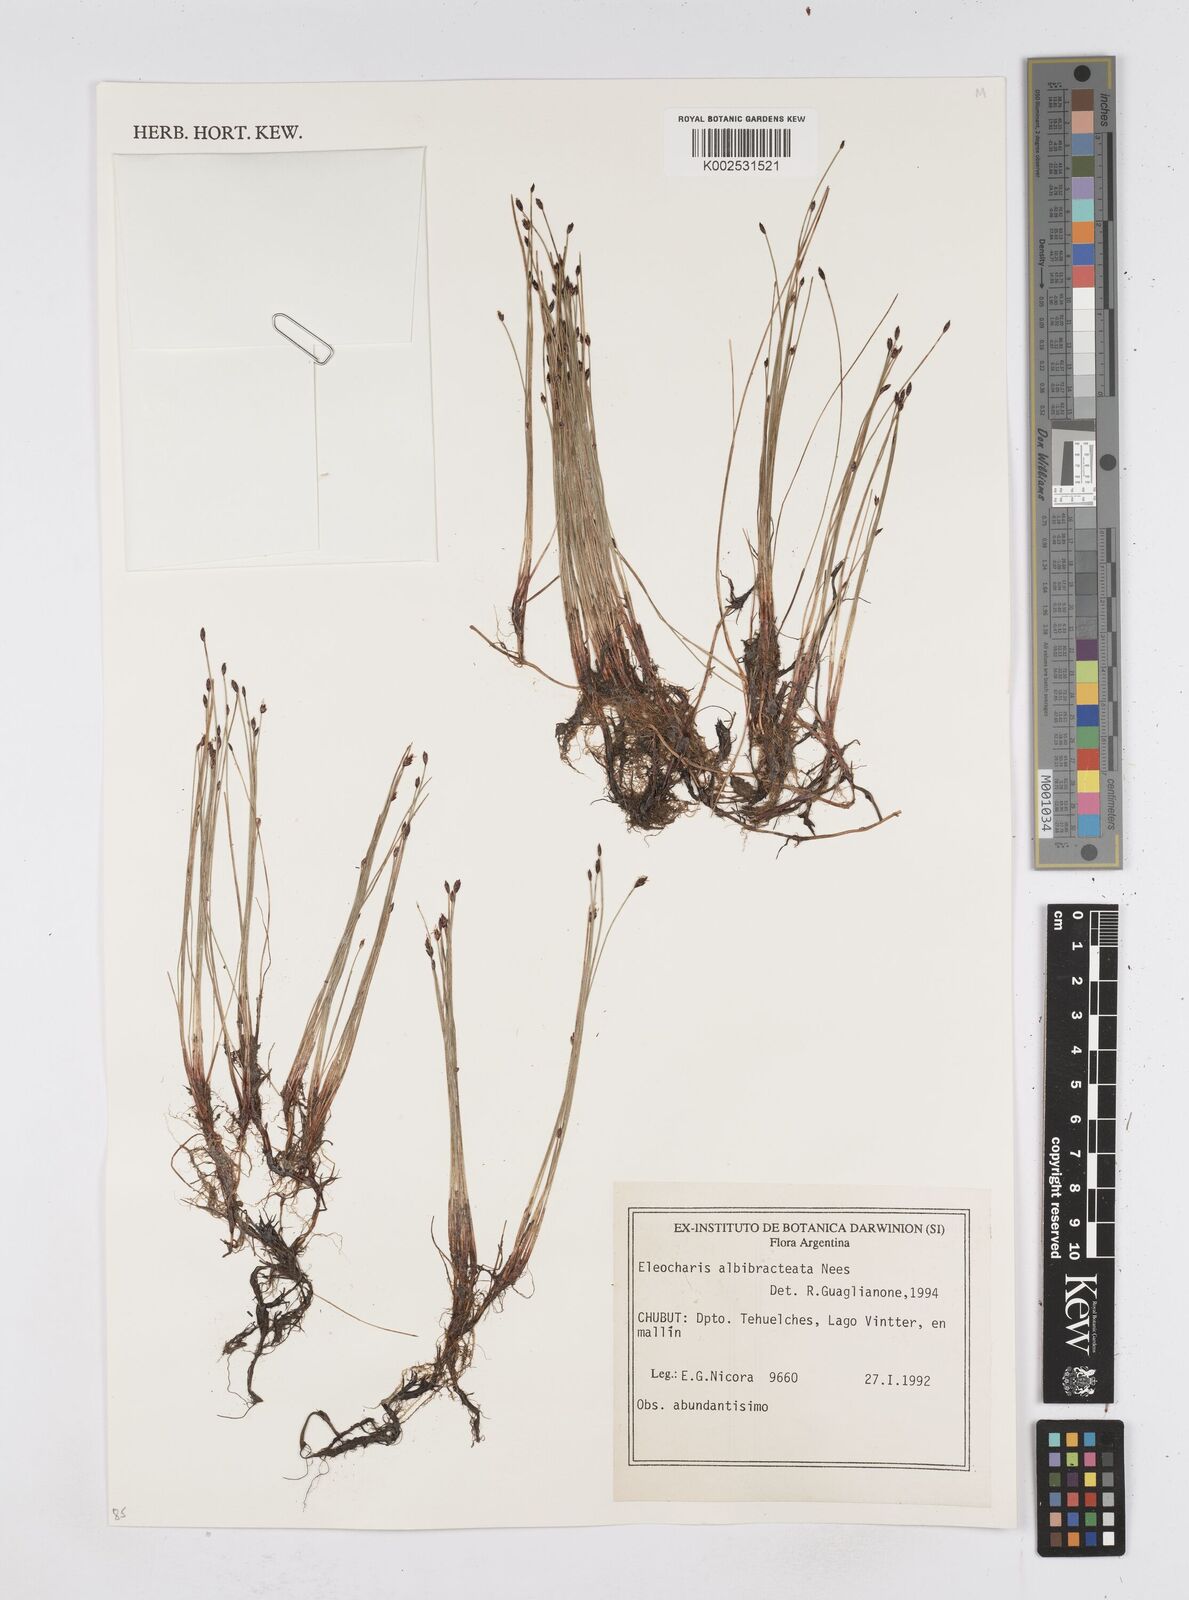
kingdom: Plantae
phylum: Tracheophyta
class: Liliopsida
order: Poales
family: Cyperaceae
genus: Eleocharis
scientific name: Eleocharis albibracteata
